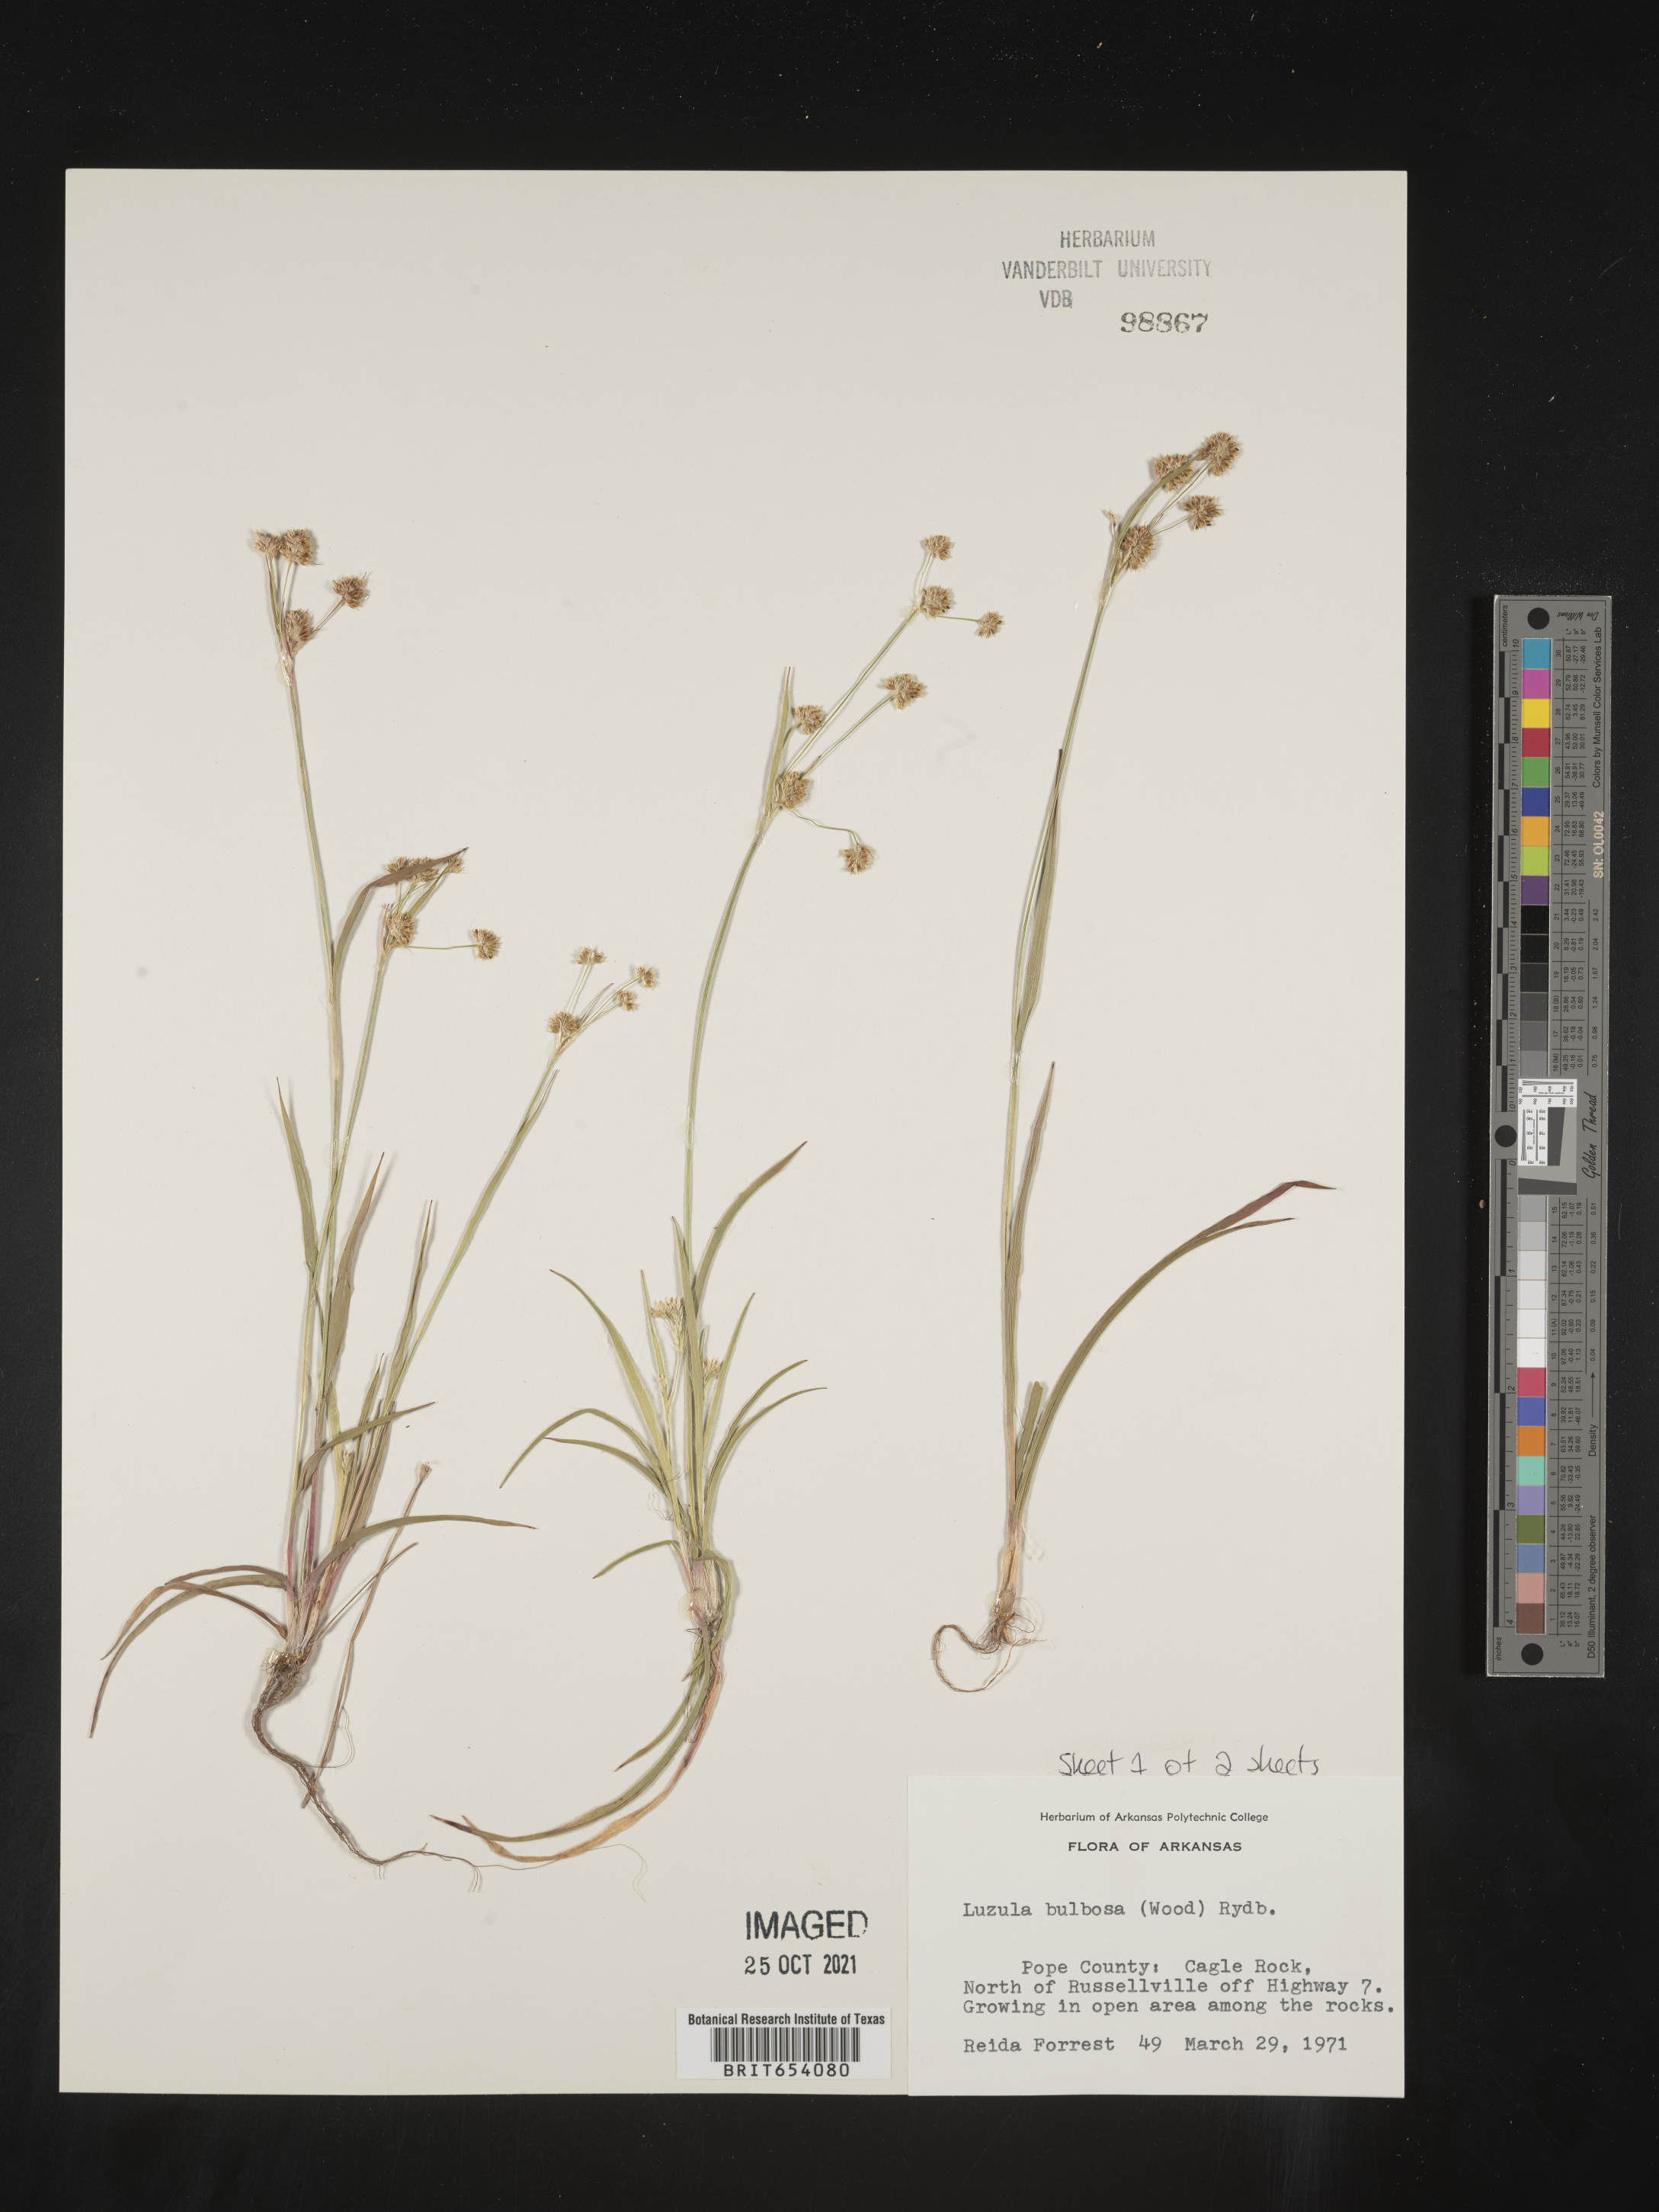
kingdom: Plantae
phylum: Tracheophyta
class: Liliopsida
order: Poales
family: Juncaceae
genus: Luzula
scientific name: Luzula bulbosa
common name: Bulbous woodrush
